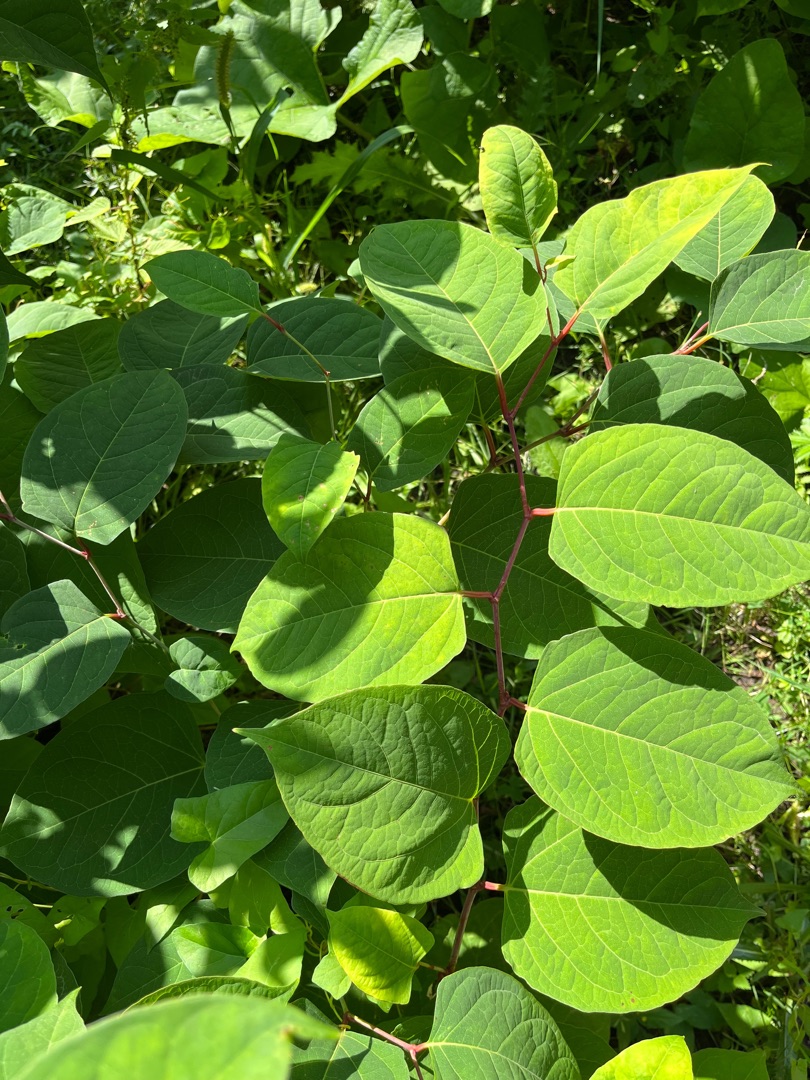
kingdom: Plantae
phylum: Tracheophyta
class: Magnoliopsida
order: Caryophyllales
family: Polygonaceae
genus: Reynoutria
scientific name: Reynoutria japonica
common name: Japan-pileurt
